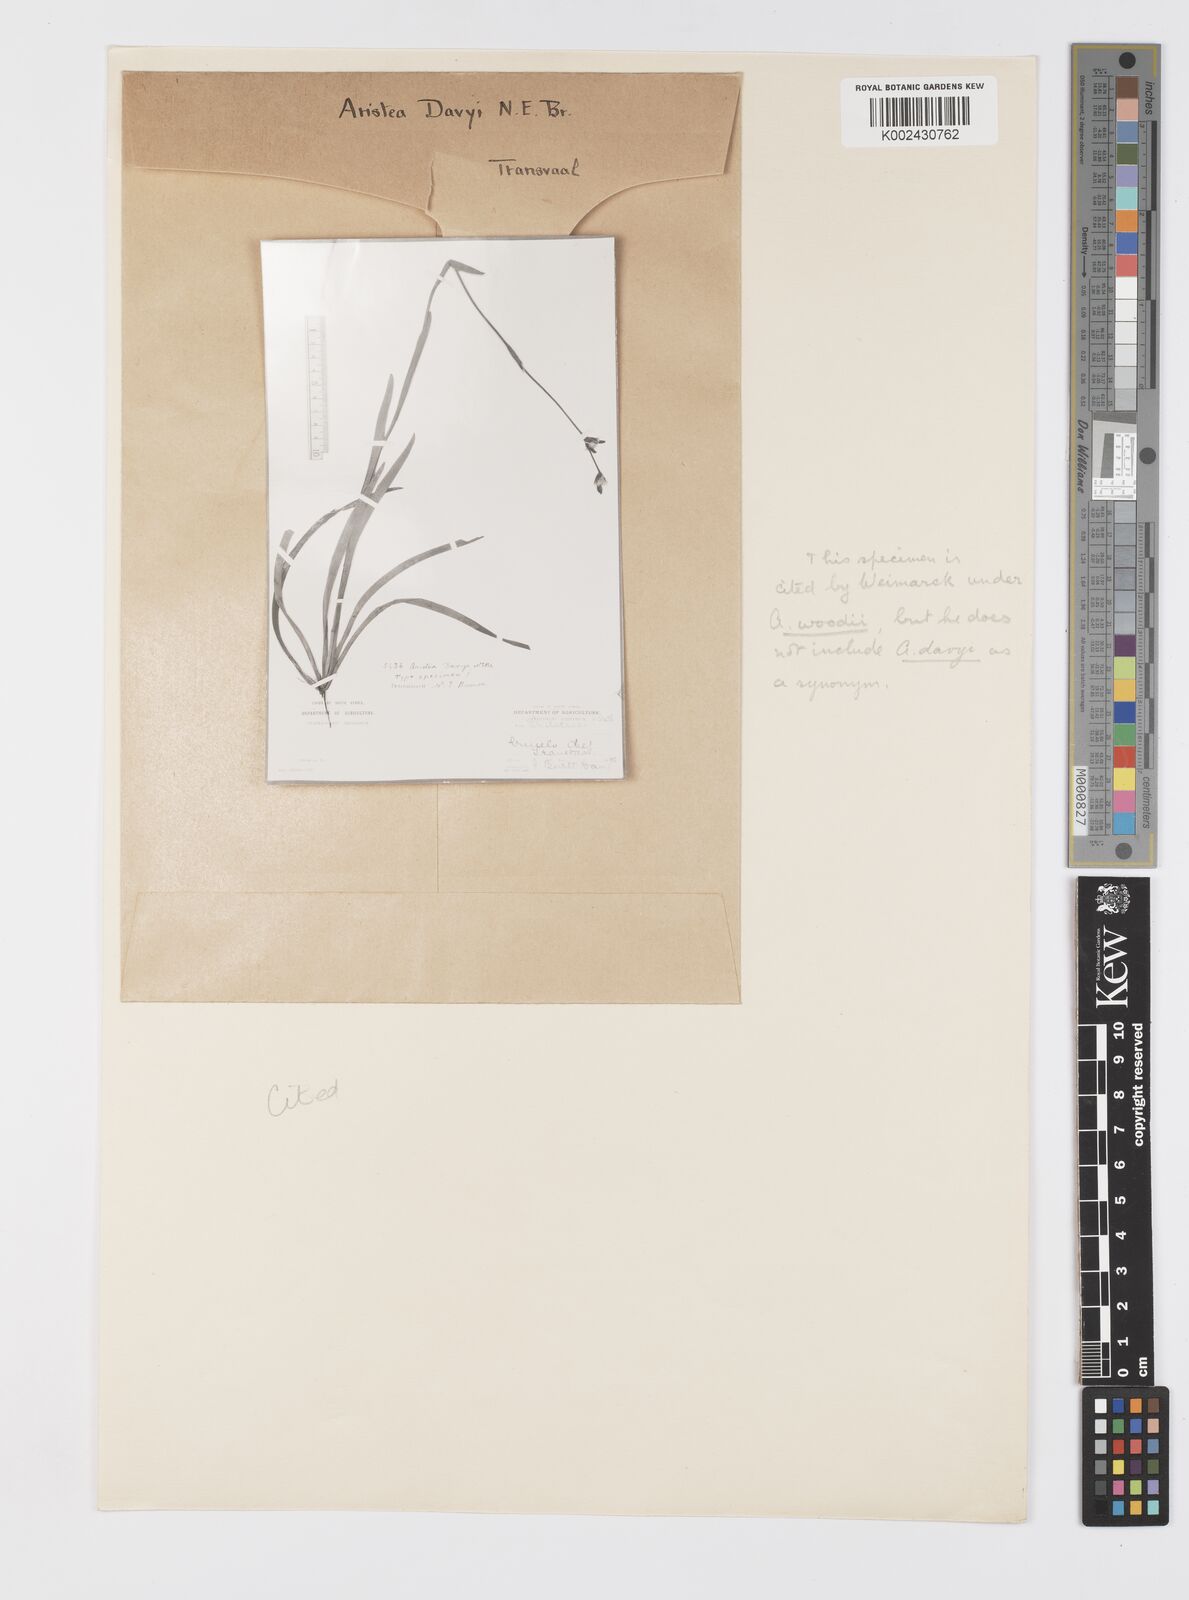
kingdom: Plantae
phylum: Tracheophyta
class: Liliopsida
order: Asparagales
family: Iridaceae
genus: Aristea
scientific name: Aristea torulosa
